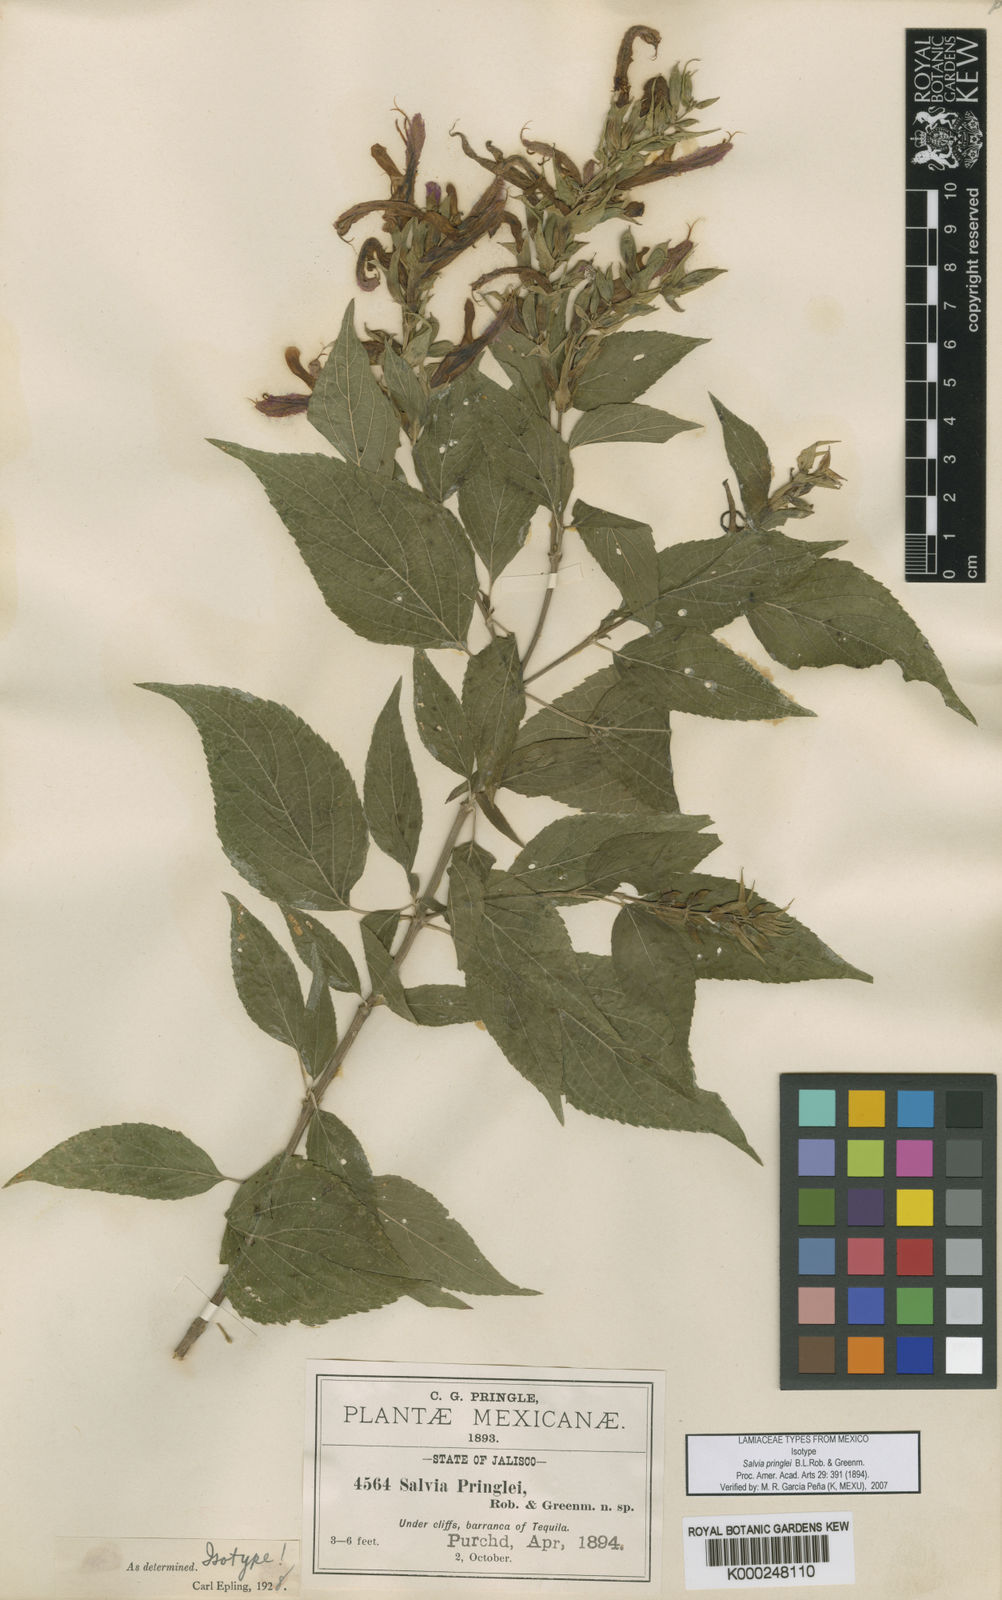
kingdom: Plantae
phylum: Tracheophyta
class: Magnoliopsida
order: Lamiales
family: Lamiaceae
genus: Salvia
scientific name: Salvia pringlei
